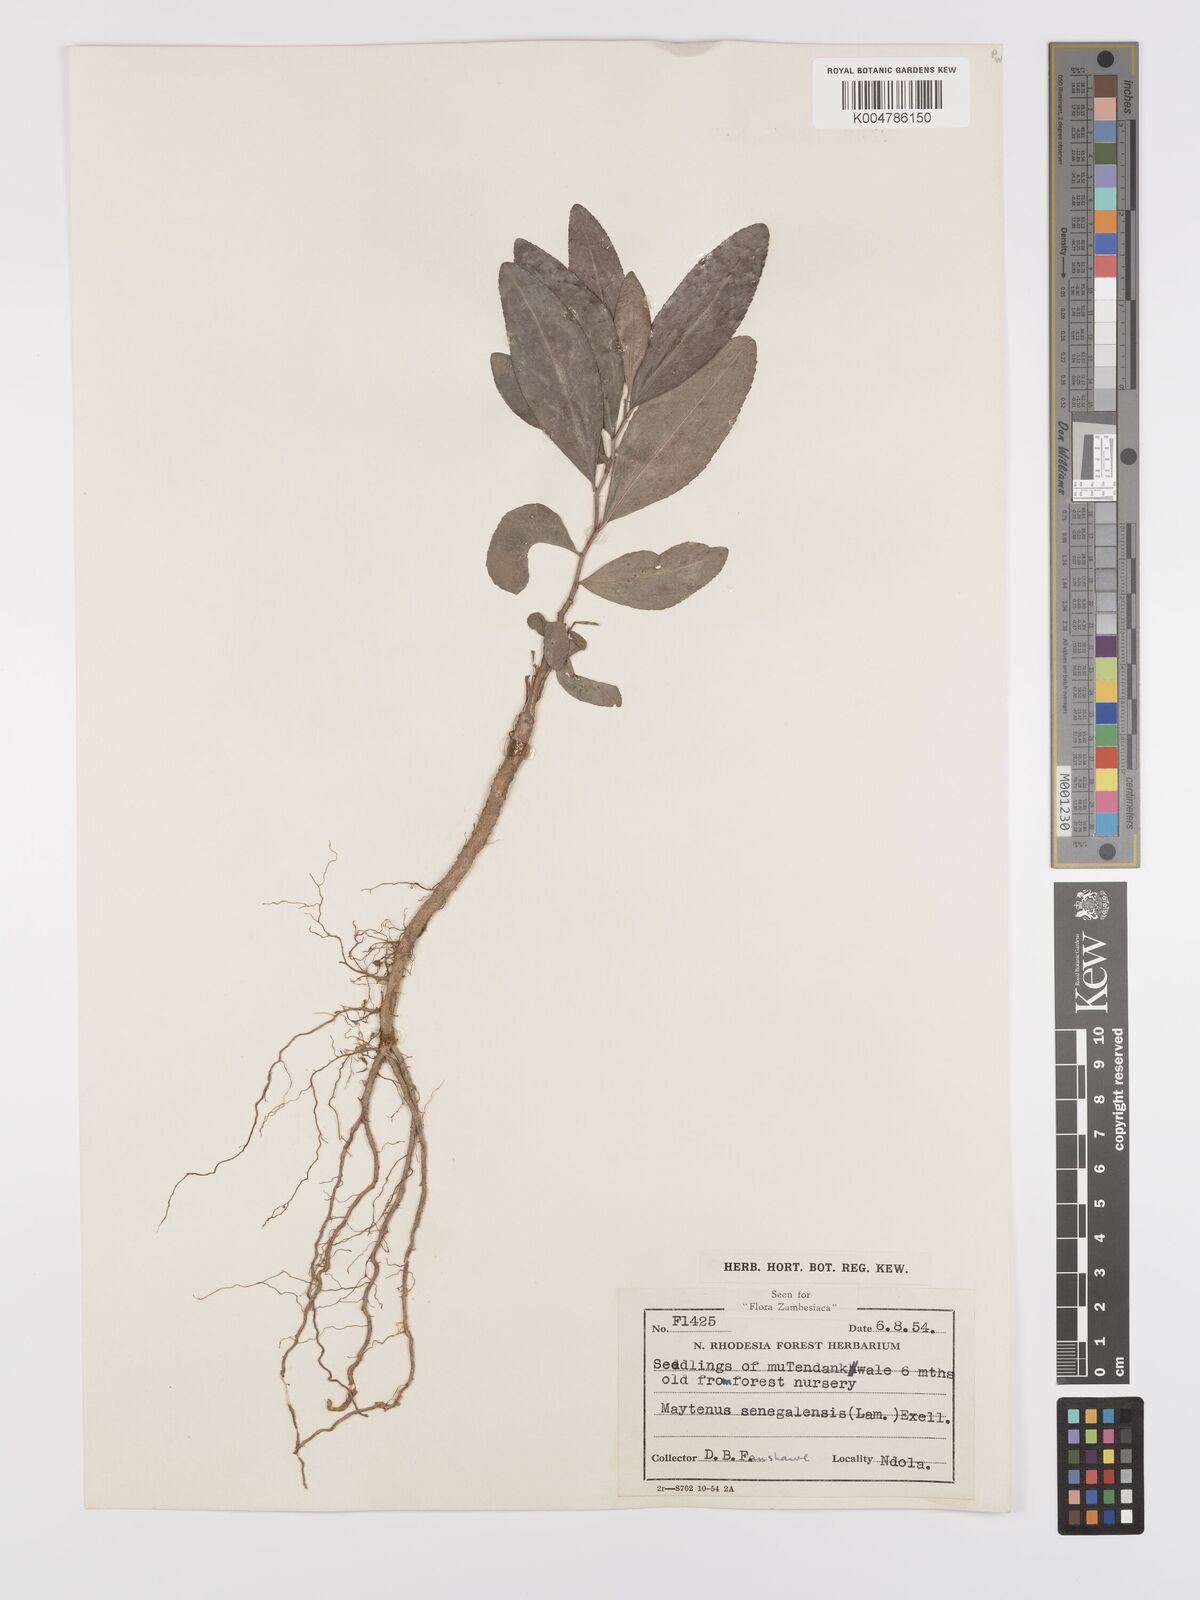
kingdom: Plantae
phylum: Tracheophyta
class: Magnoliopsida
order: Celastrales
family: Celastraceae
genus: Gymnosporia
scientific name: Gymnosporia senegalensis
